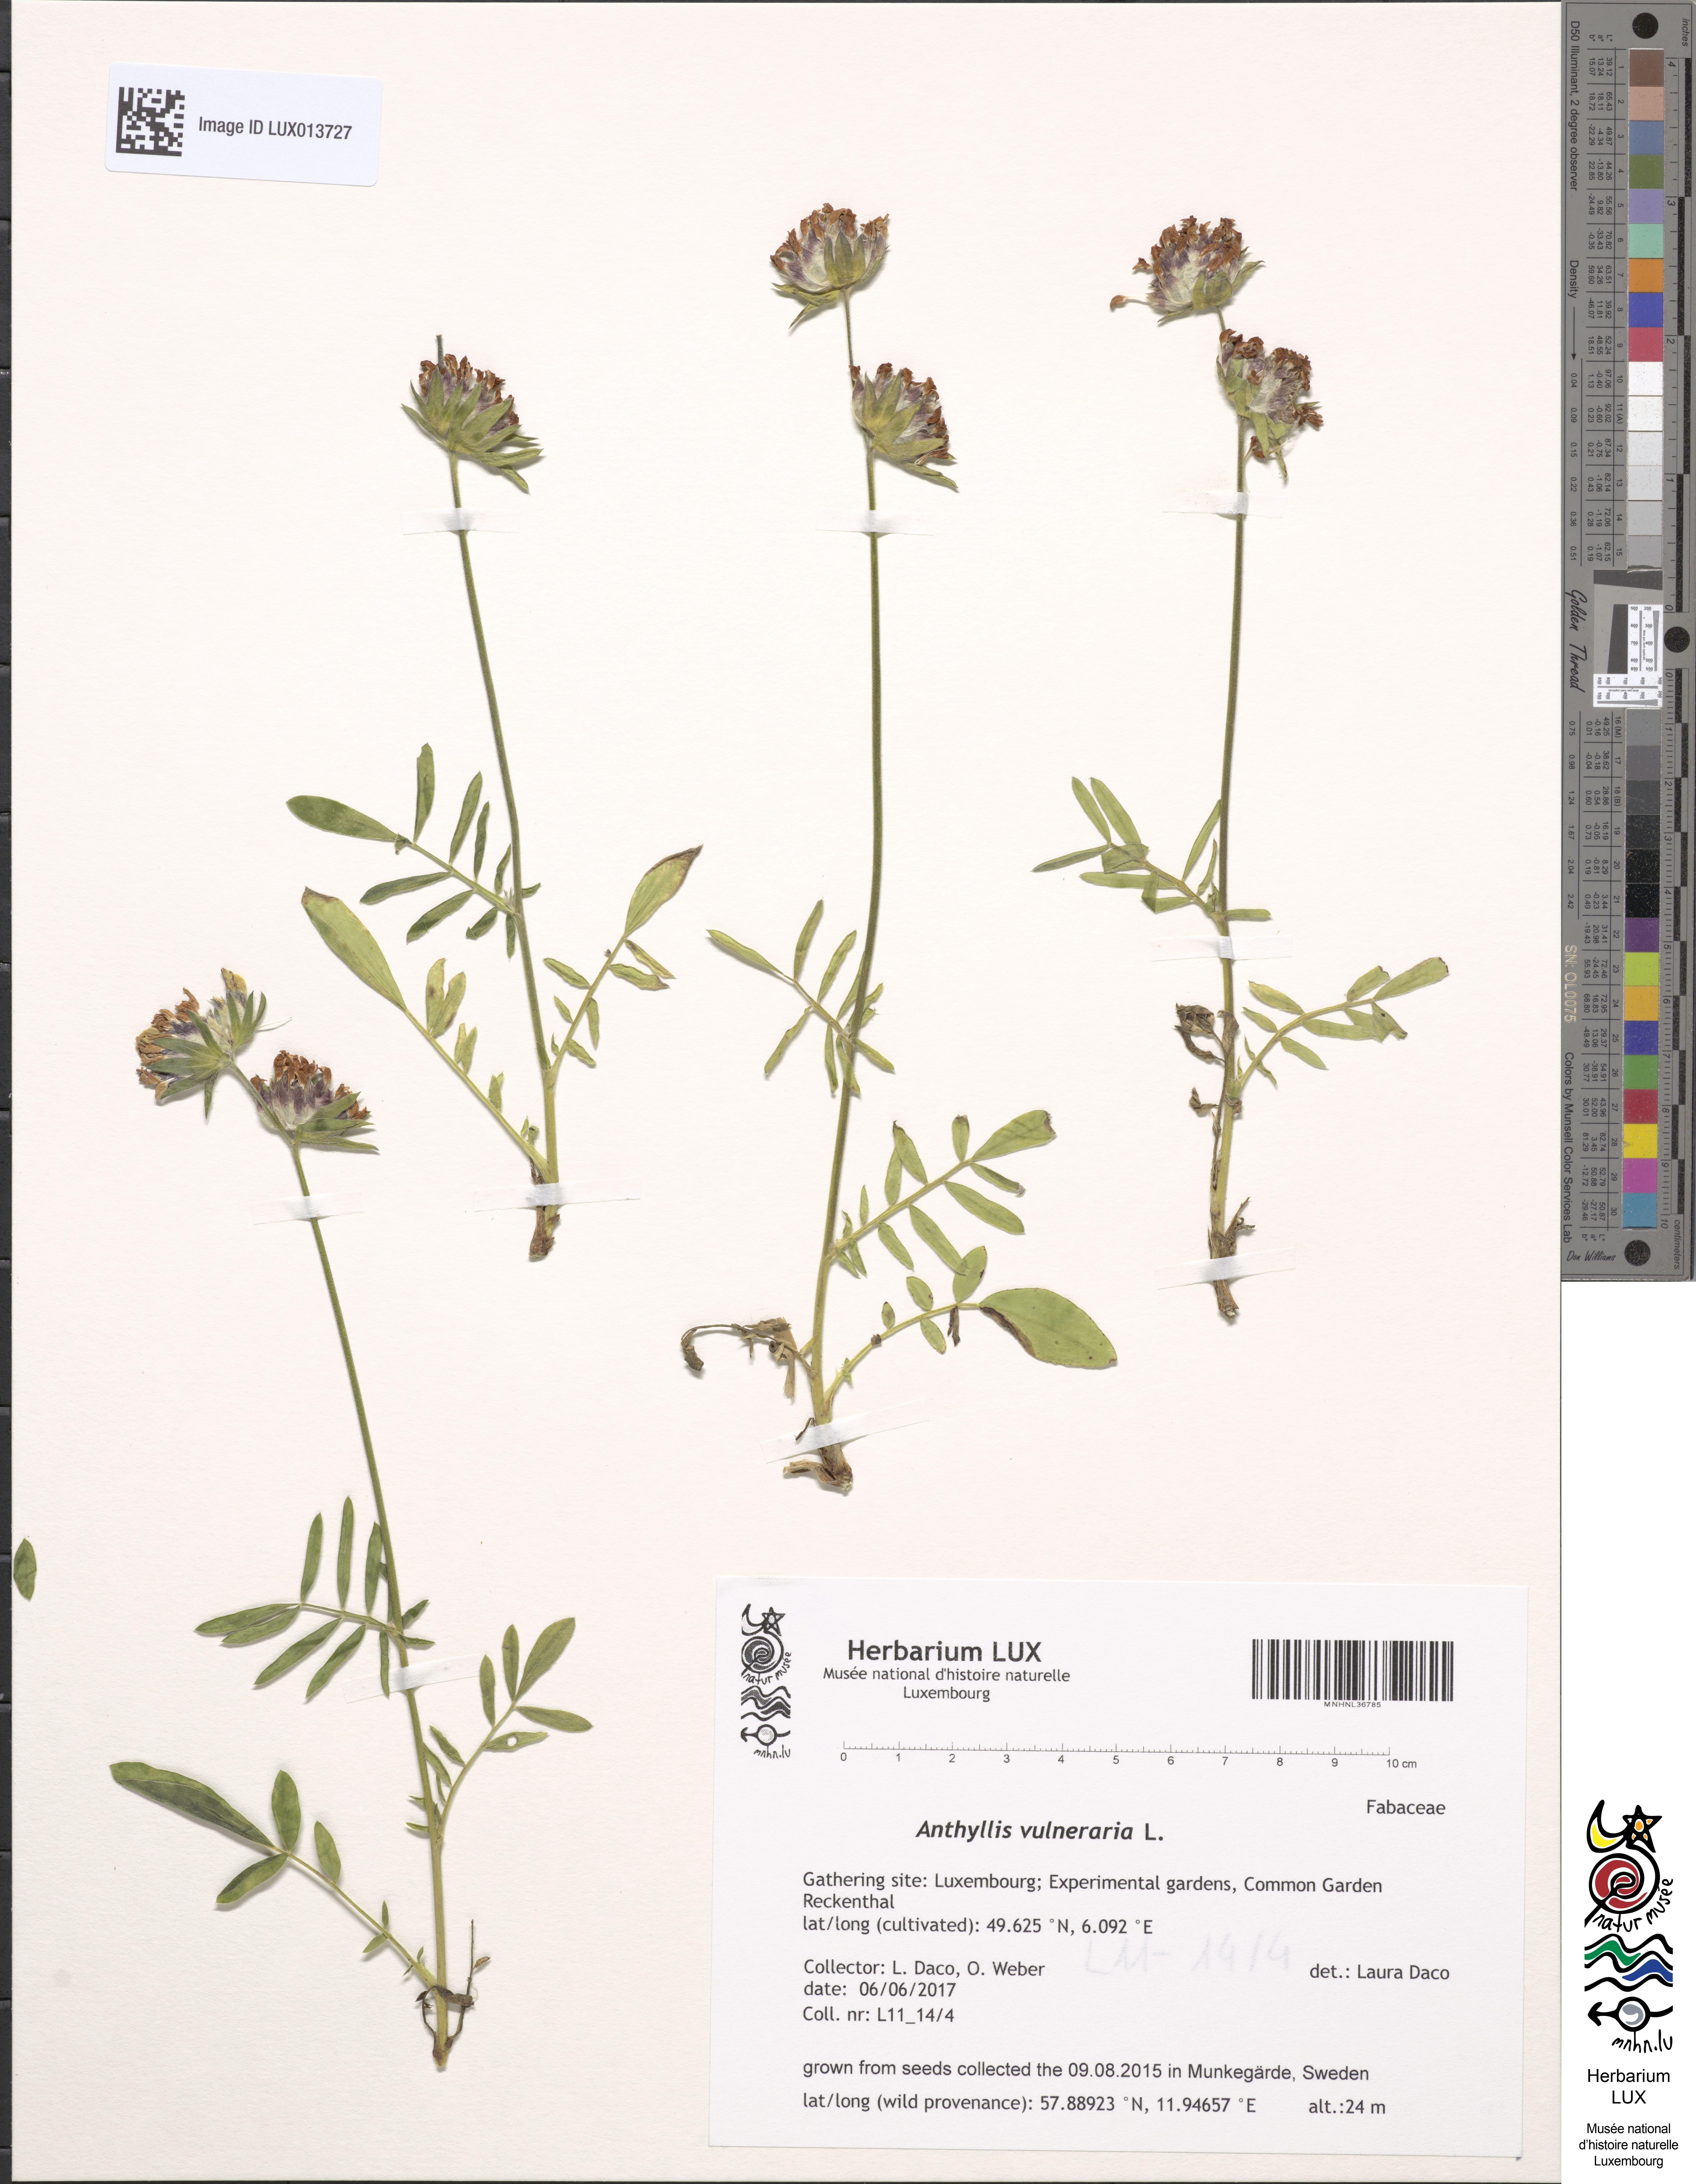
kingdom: Plantae
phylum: Tracheophyta
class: Magnoliopsida
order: Fabales
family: Fabaceae
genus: Anthyllis
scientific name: Anthyllis vulneraria
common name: Kidney vetch
